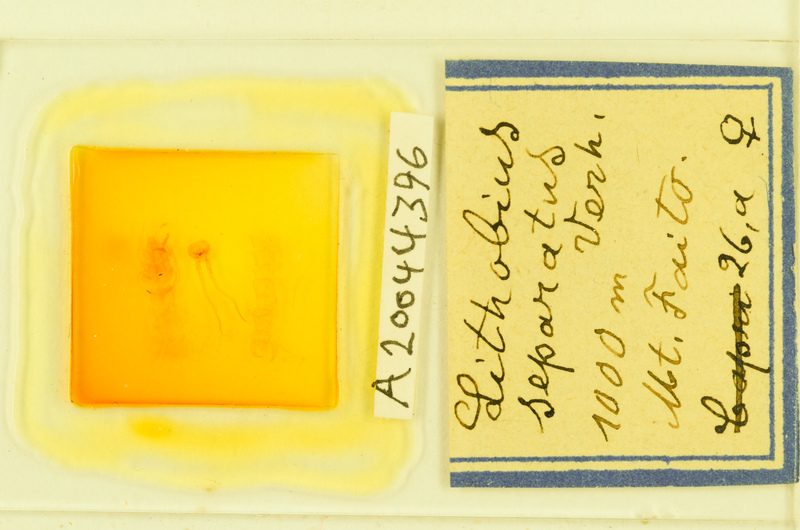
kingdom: Animalia
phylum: Arthropoda
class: Chilopoda
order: Lithobiomorpha
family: Lithobiidae
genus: Lithobius
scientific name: Lithobius separatus
